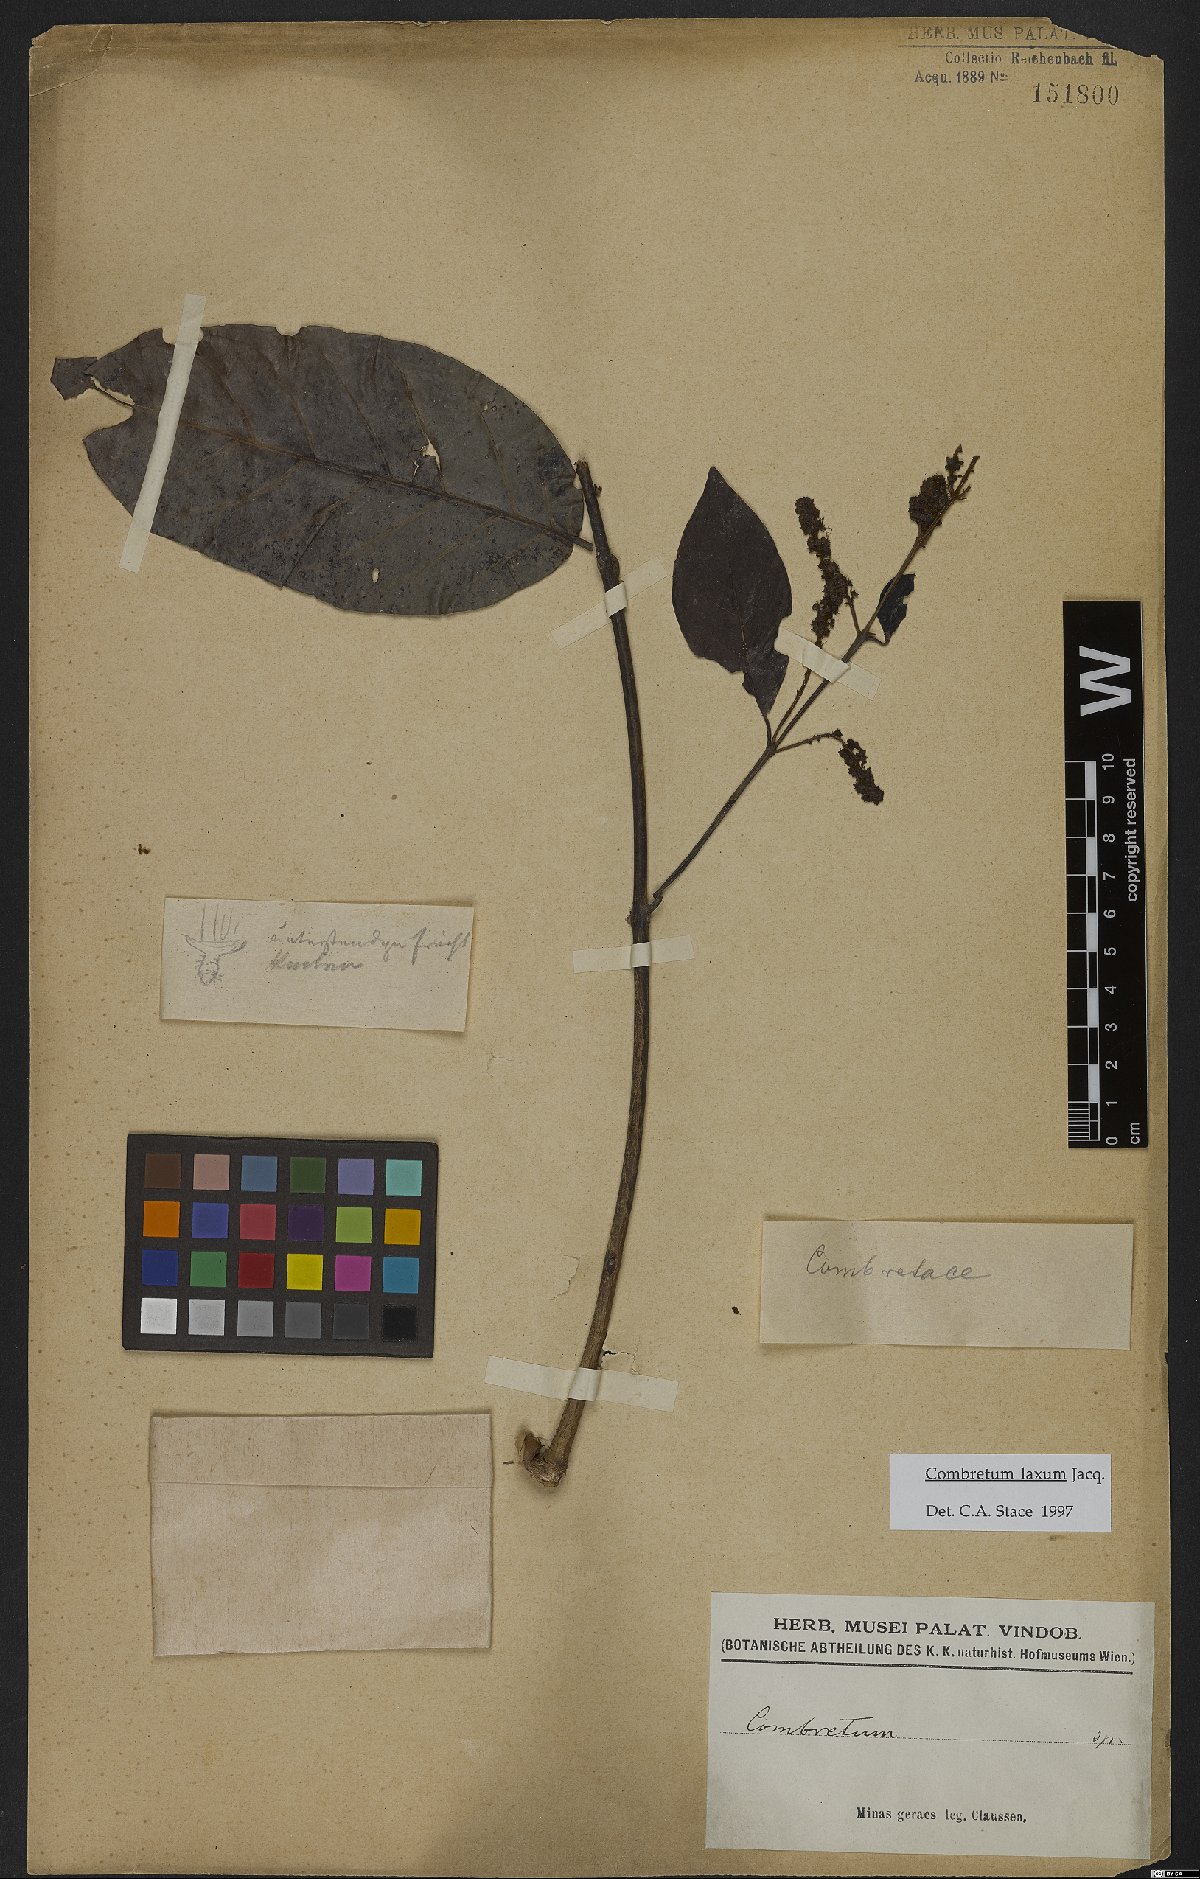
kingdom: Plantae
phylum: Tracheophyta
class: Magnoliopsida
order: Myrtales
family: Combretaceae
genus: Combretum
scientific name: Combretum laxum
